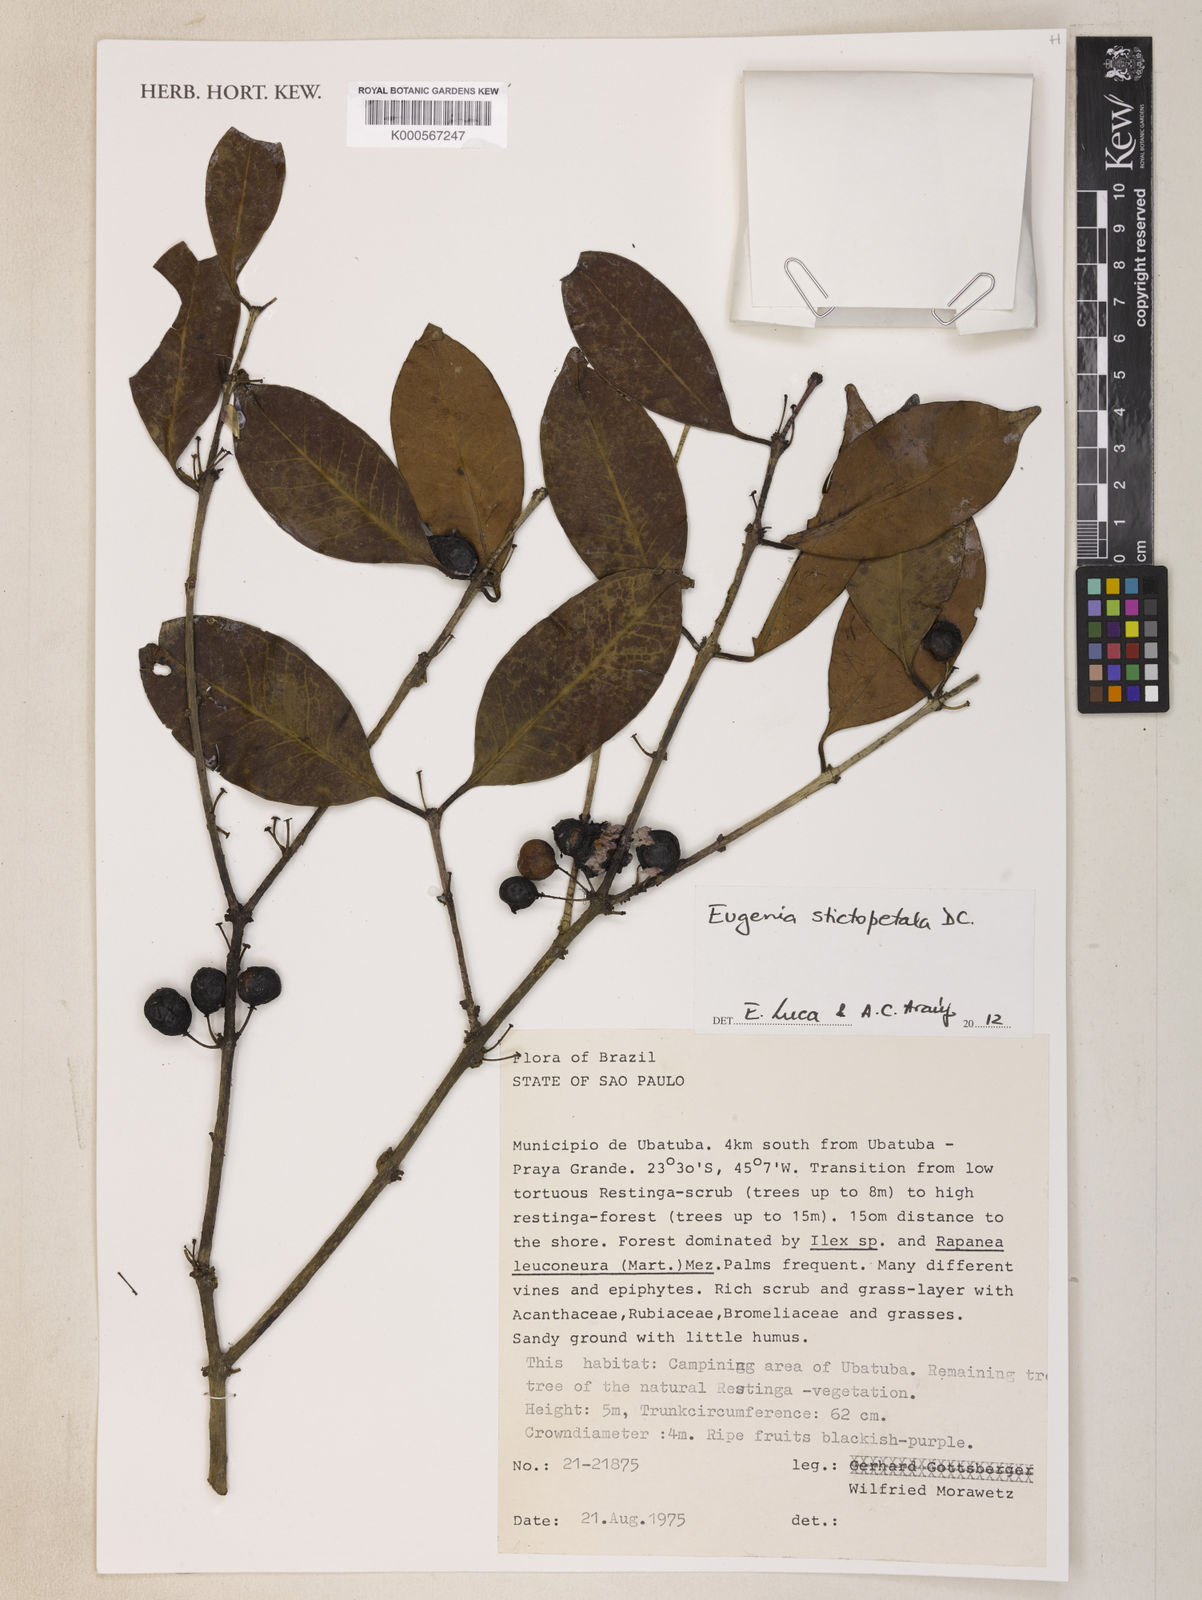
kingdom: Plantae
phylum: Tracheophyta
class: Magnoliopsida
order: Myrtales
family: Myrtaceae
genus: Eugenia
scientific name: Eugenia stictopetala
